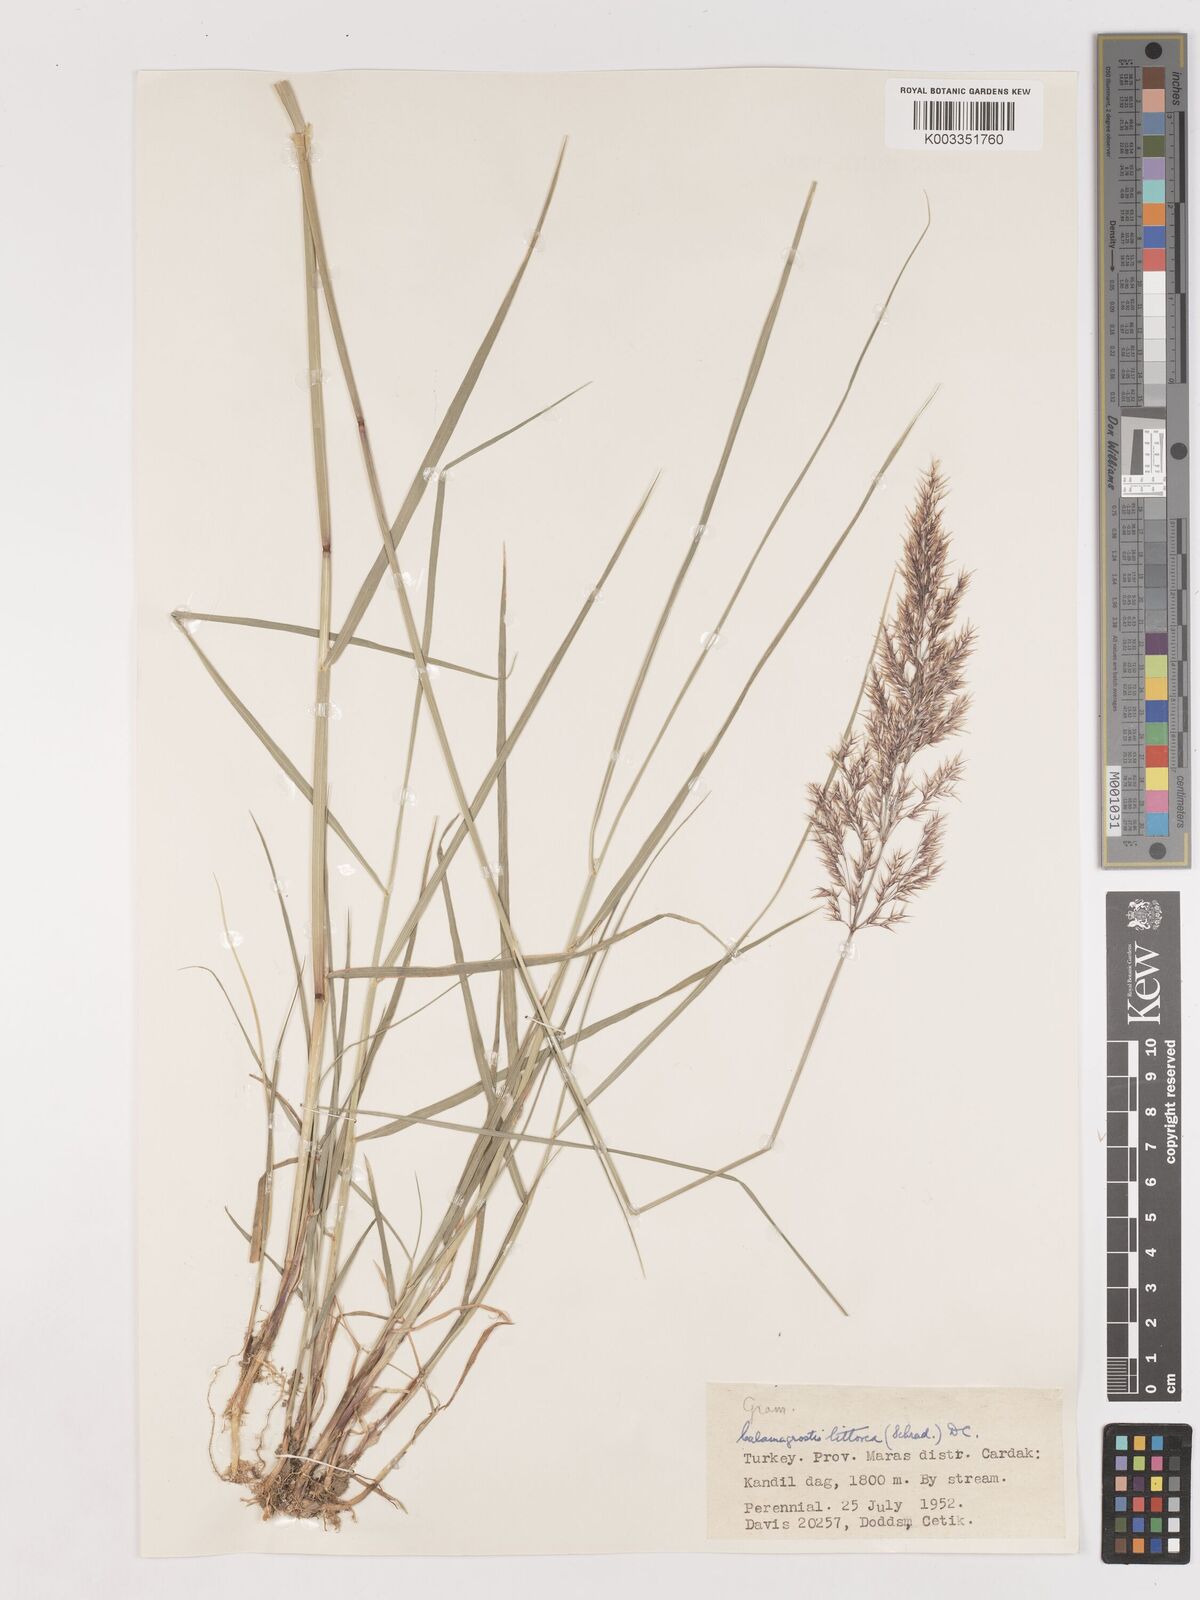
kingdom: Plantae
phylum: Tracheophyta
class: Liliopsida
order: Poales
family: Poaceae
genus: Calamagrostis
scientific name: Calamagrostis pseudophragmites
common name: Coastal small-reed
